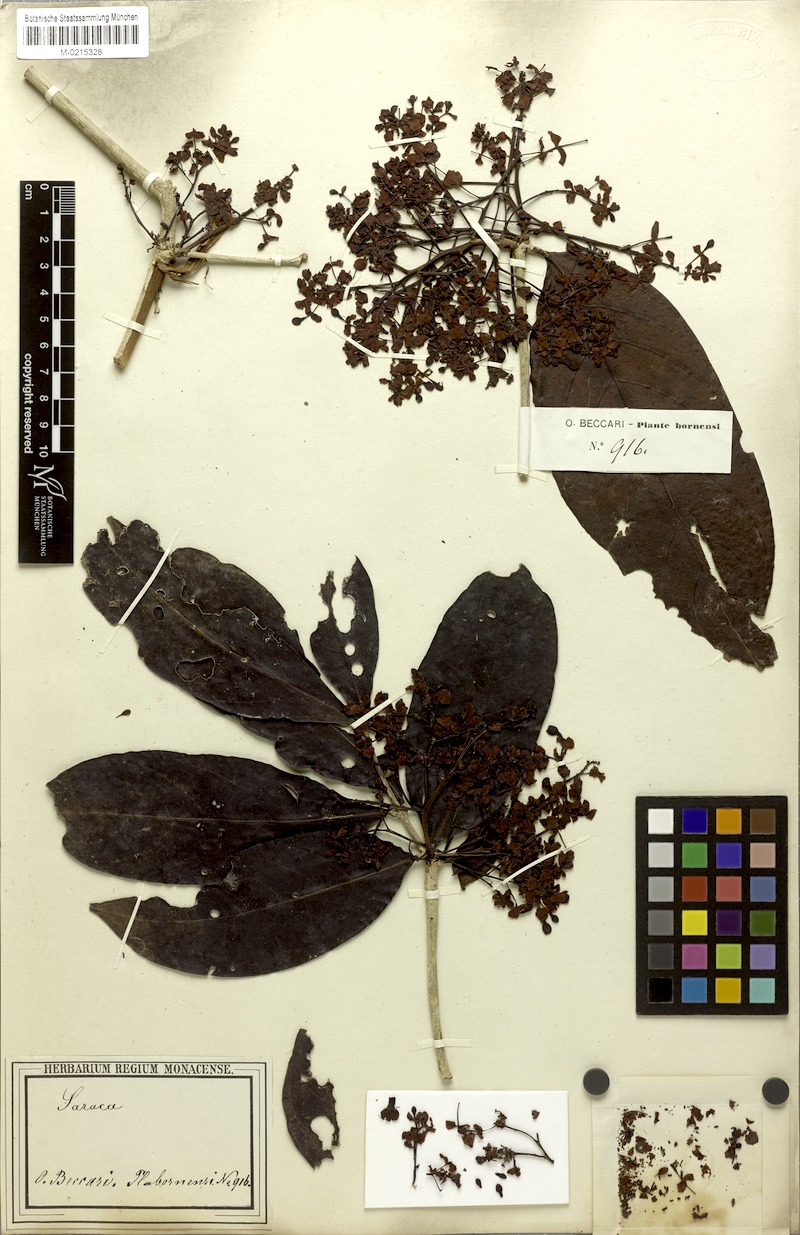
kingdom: Plantae
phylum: Tracheophyta
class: Magnoliopsida
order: Fabales
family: Fabaceae
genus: Saraca
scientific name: Saraca hullettii
